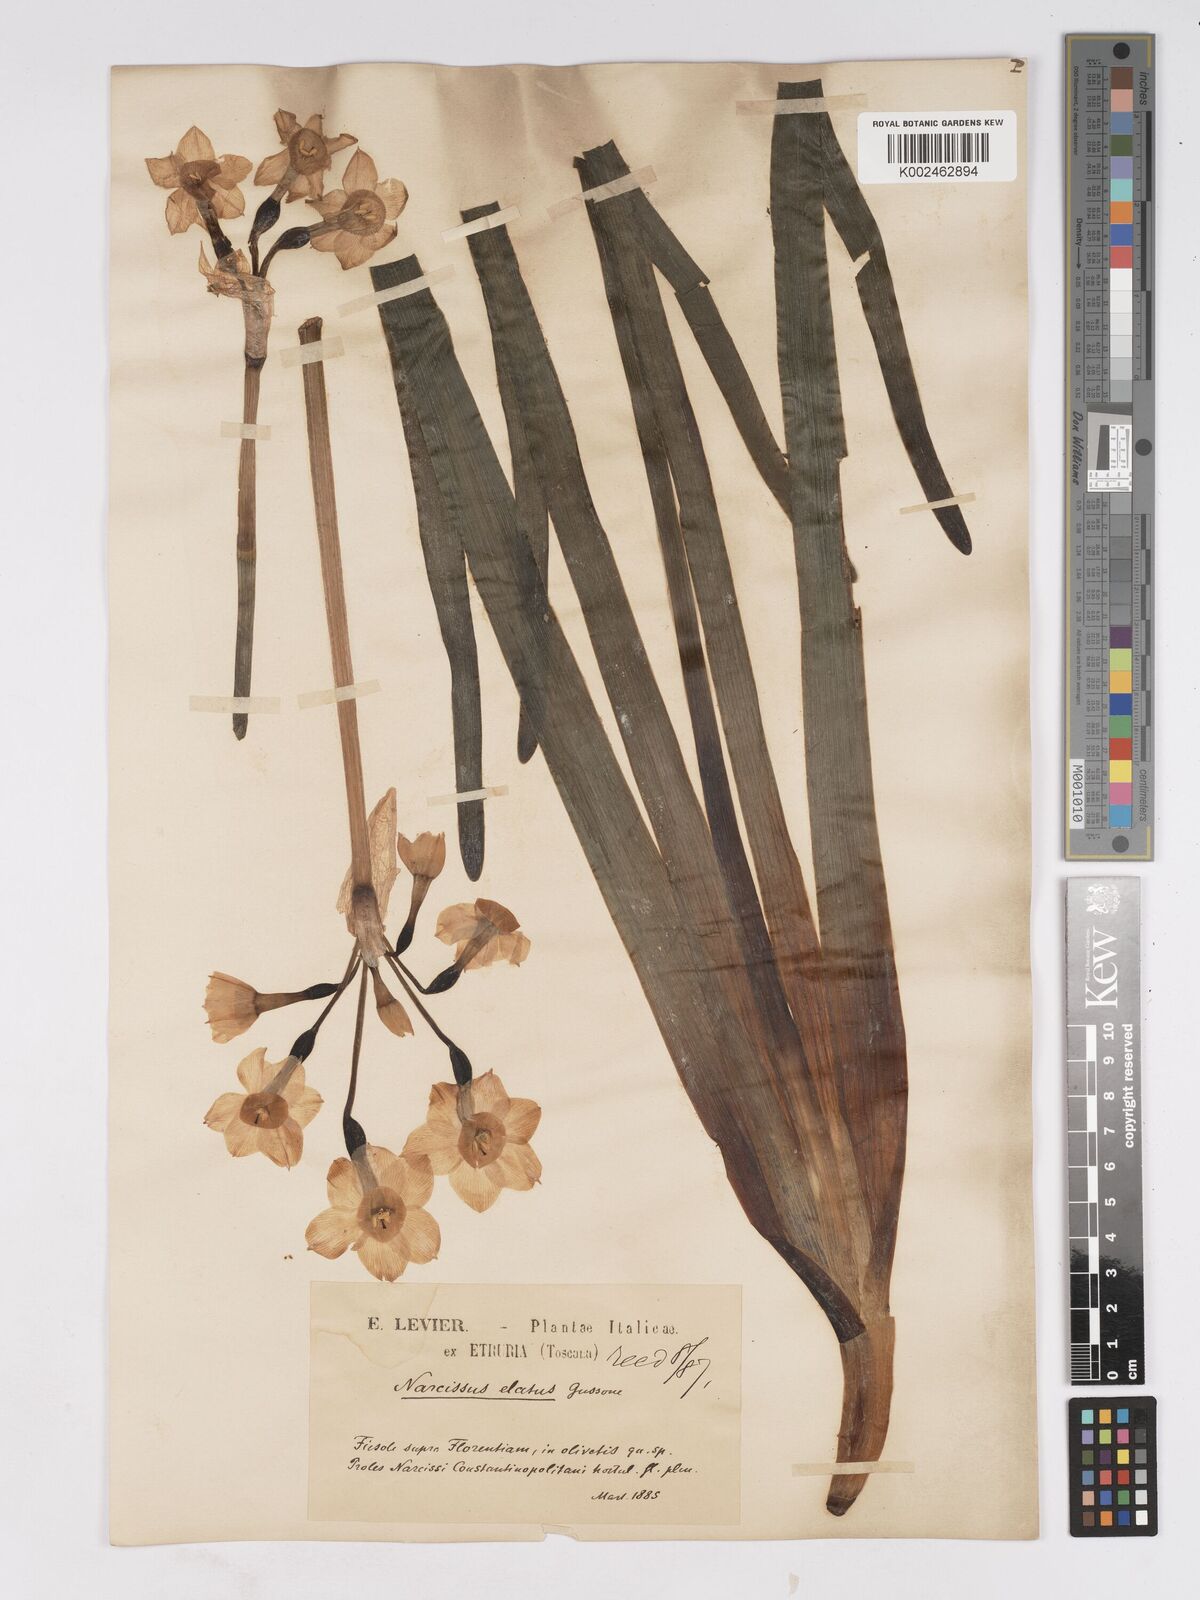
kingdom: Plantae
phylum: Tracheophyta
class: Liliopsida
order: Asparagales
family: Amaryllidaceae
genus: Narcissus
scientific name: Narcissus
